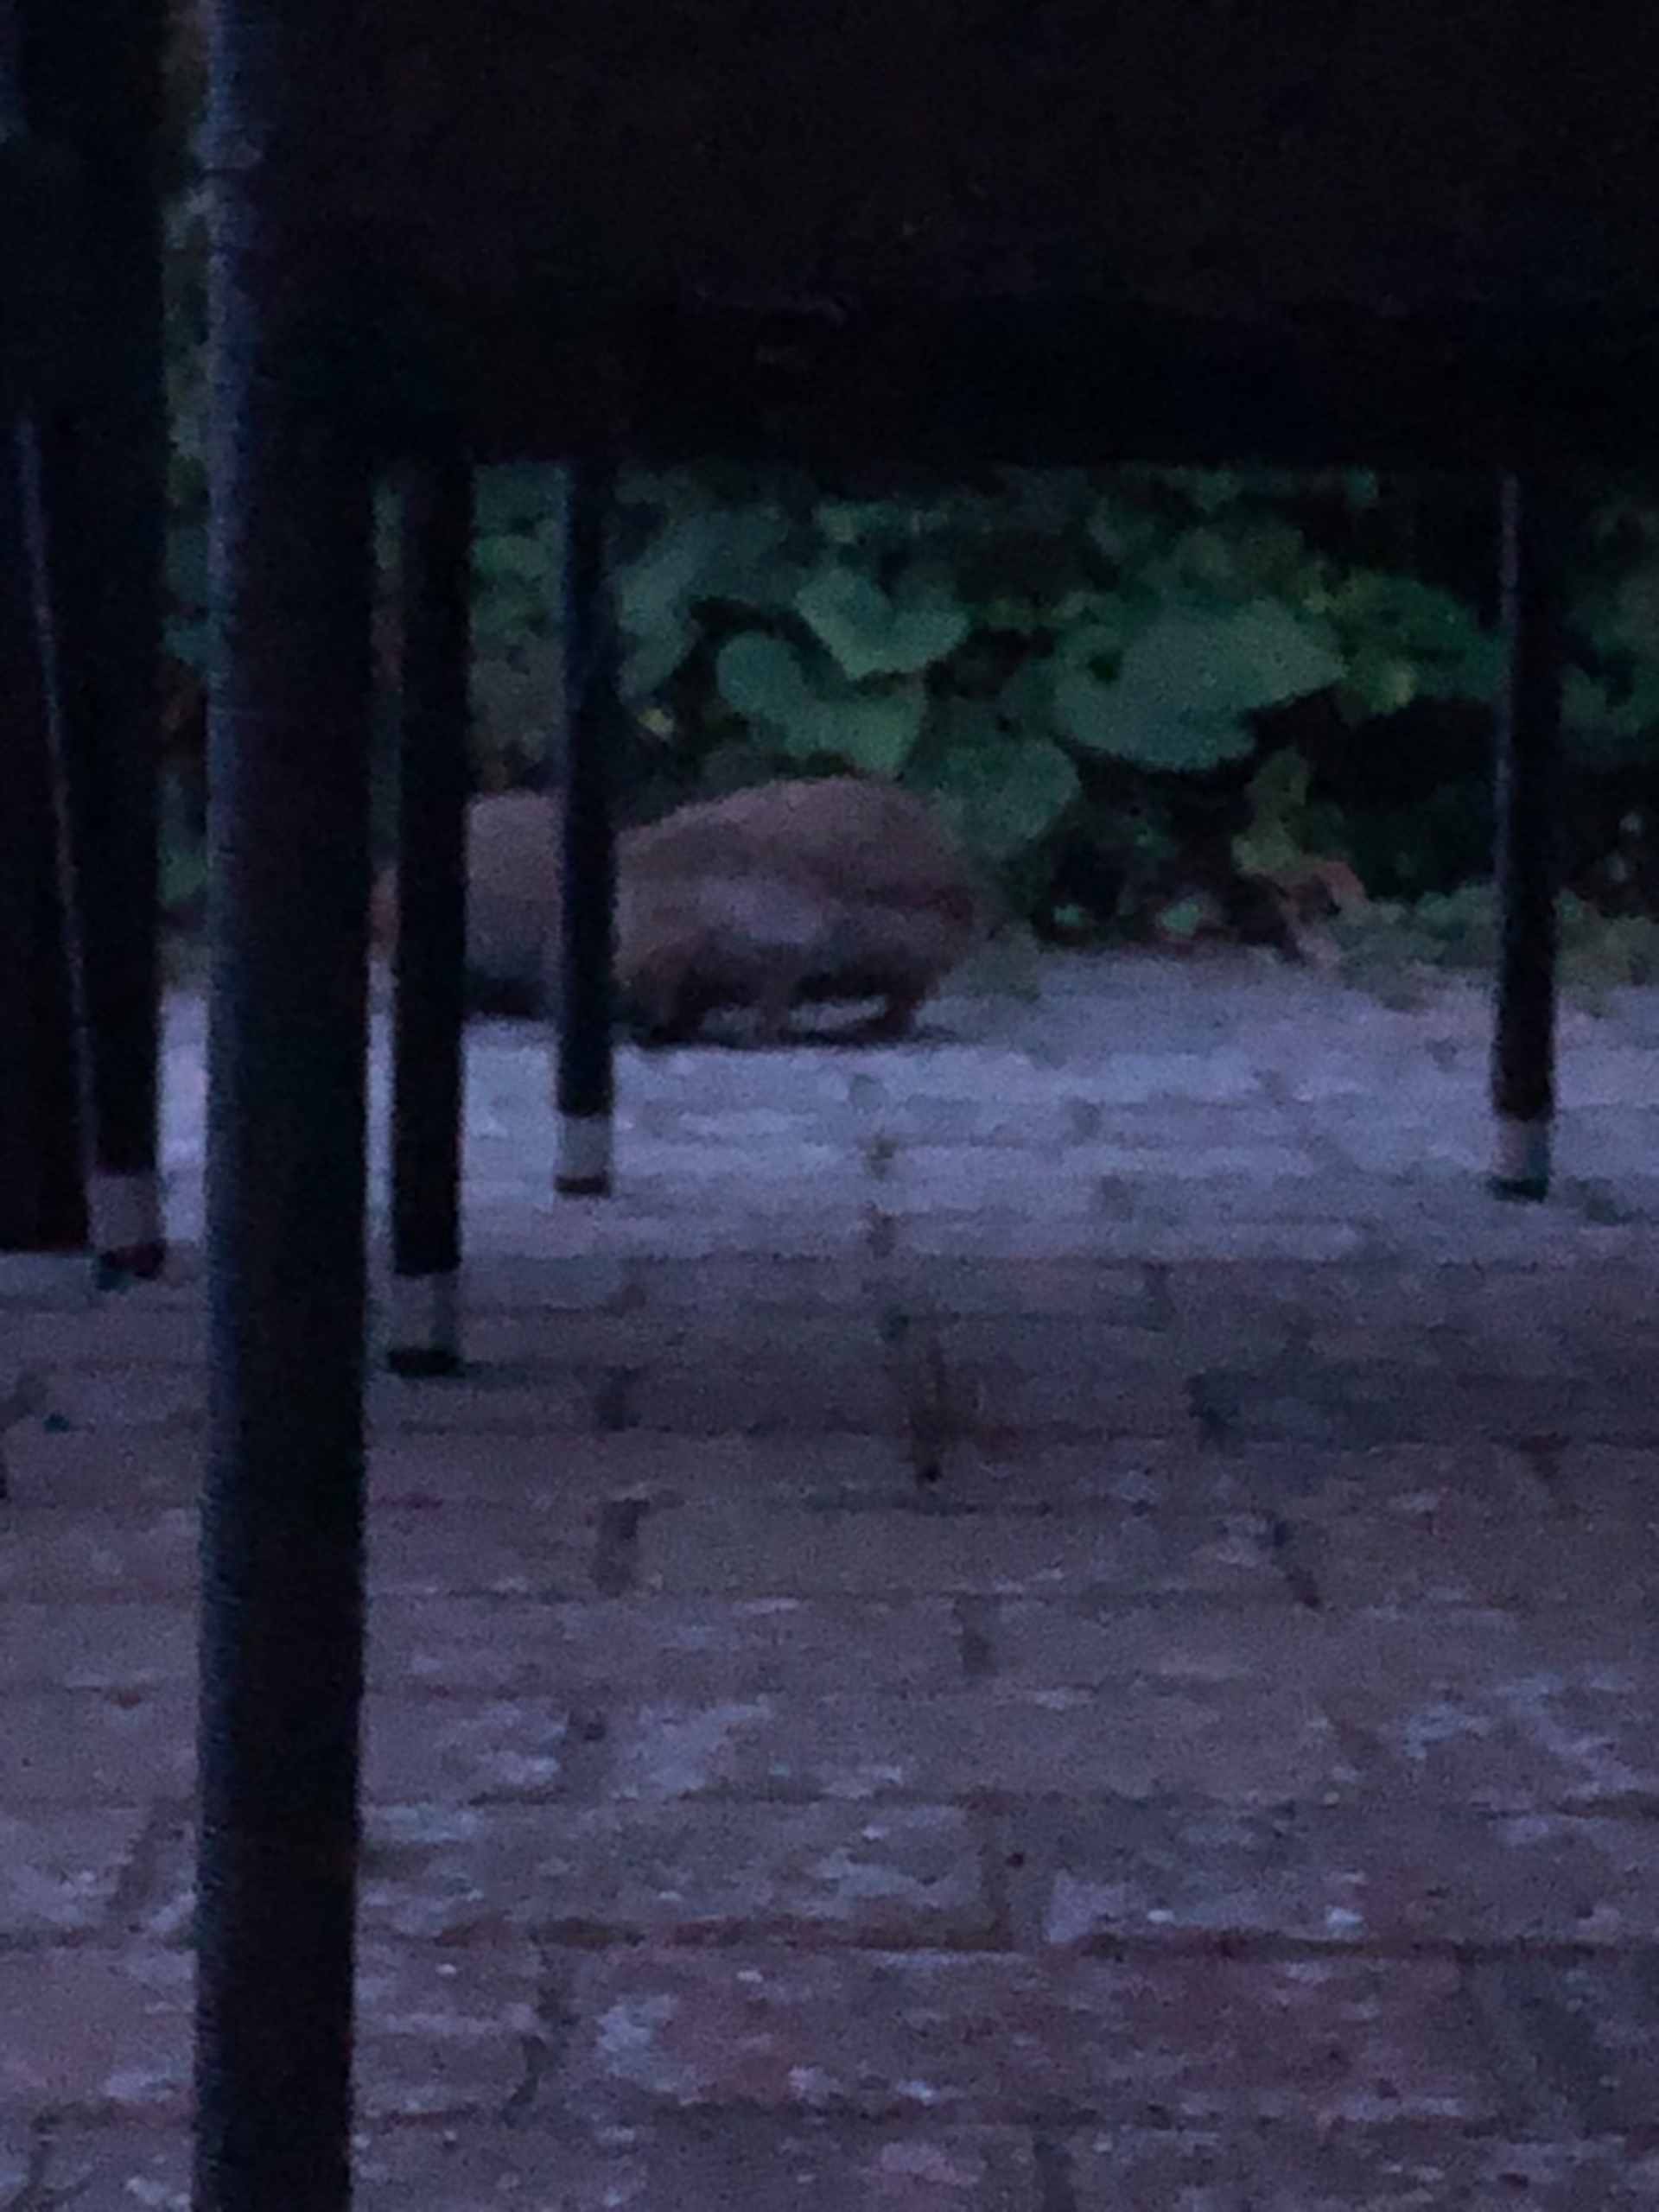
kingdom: Animalia
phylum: Chordata
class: Mammalia
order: Erinaceomorpha
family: Erinaceidae
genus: Erinaceus
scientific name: Erinaceus europaeus
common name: Pindsvin
